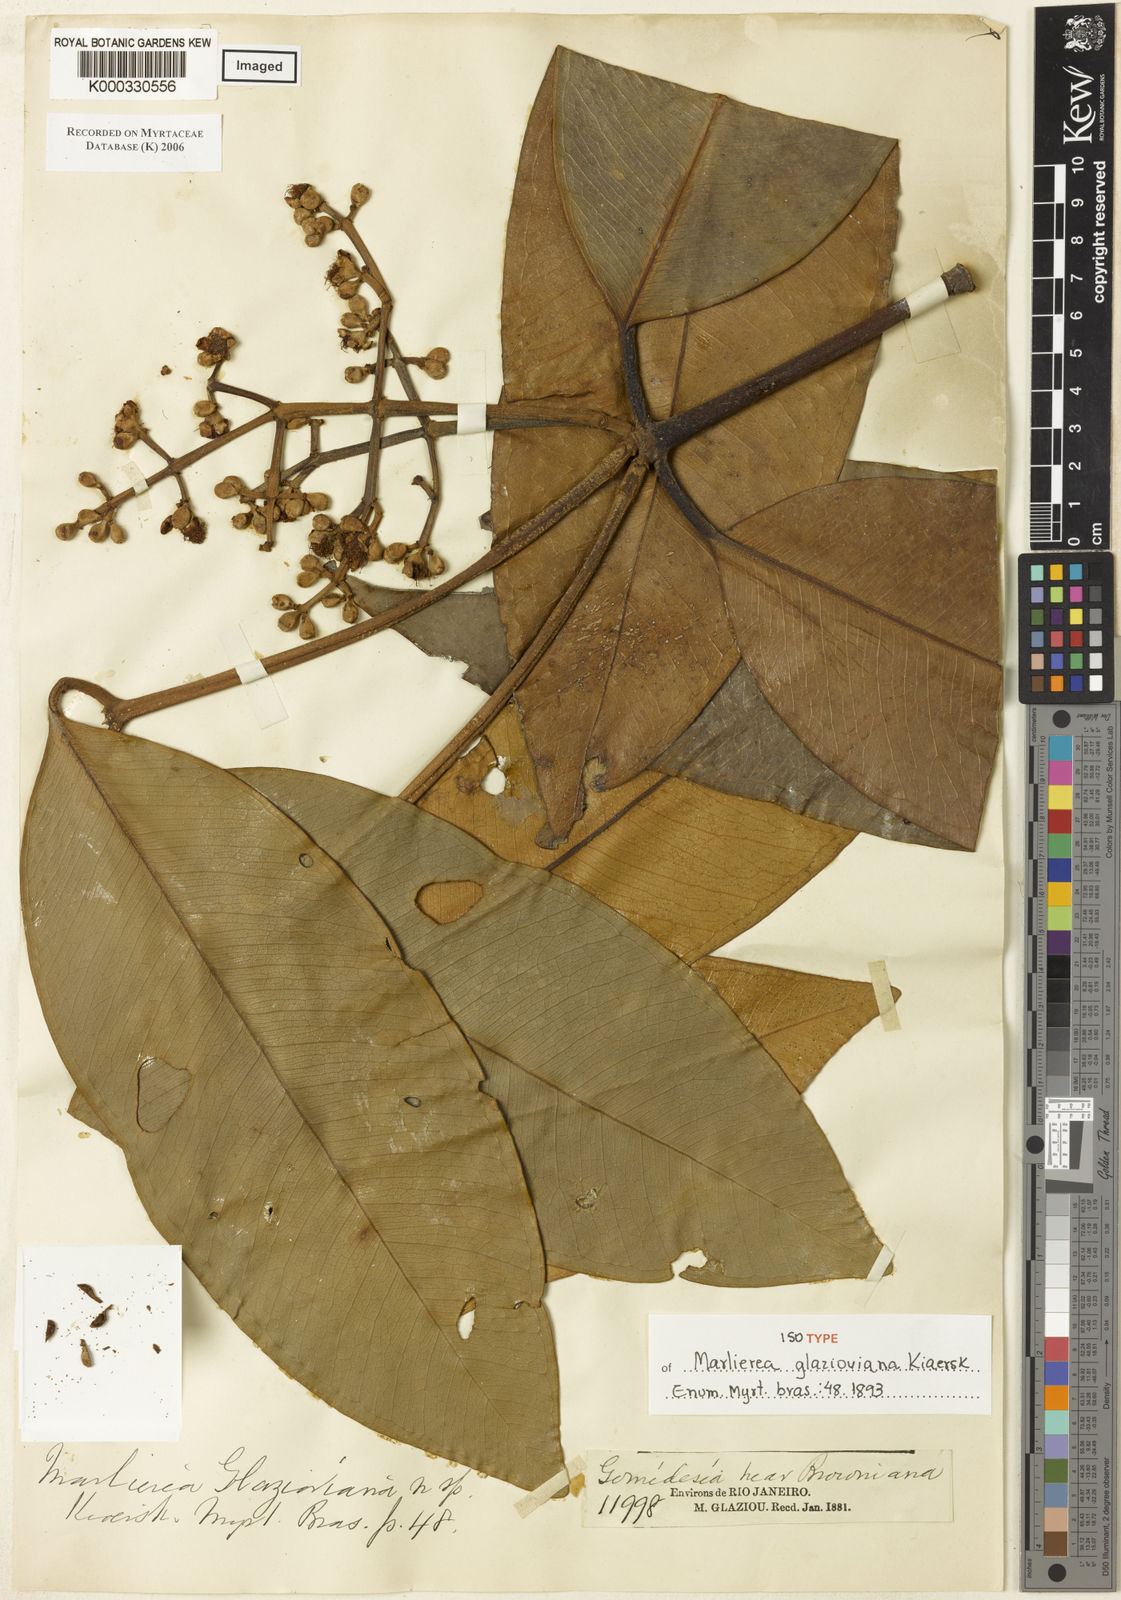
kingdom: Plantae
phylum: Tracheophyta
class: Magnoliopsida
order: Myrtales
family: Myrtaceae
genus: Myrcia
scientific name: Myrcia insigniflora
